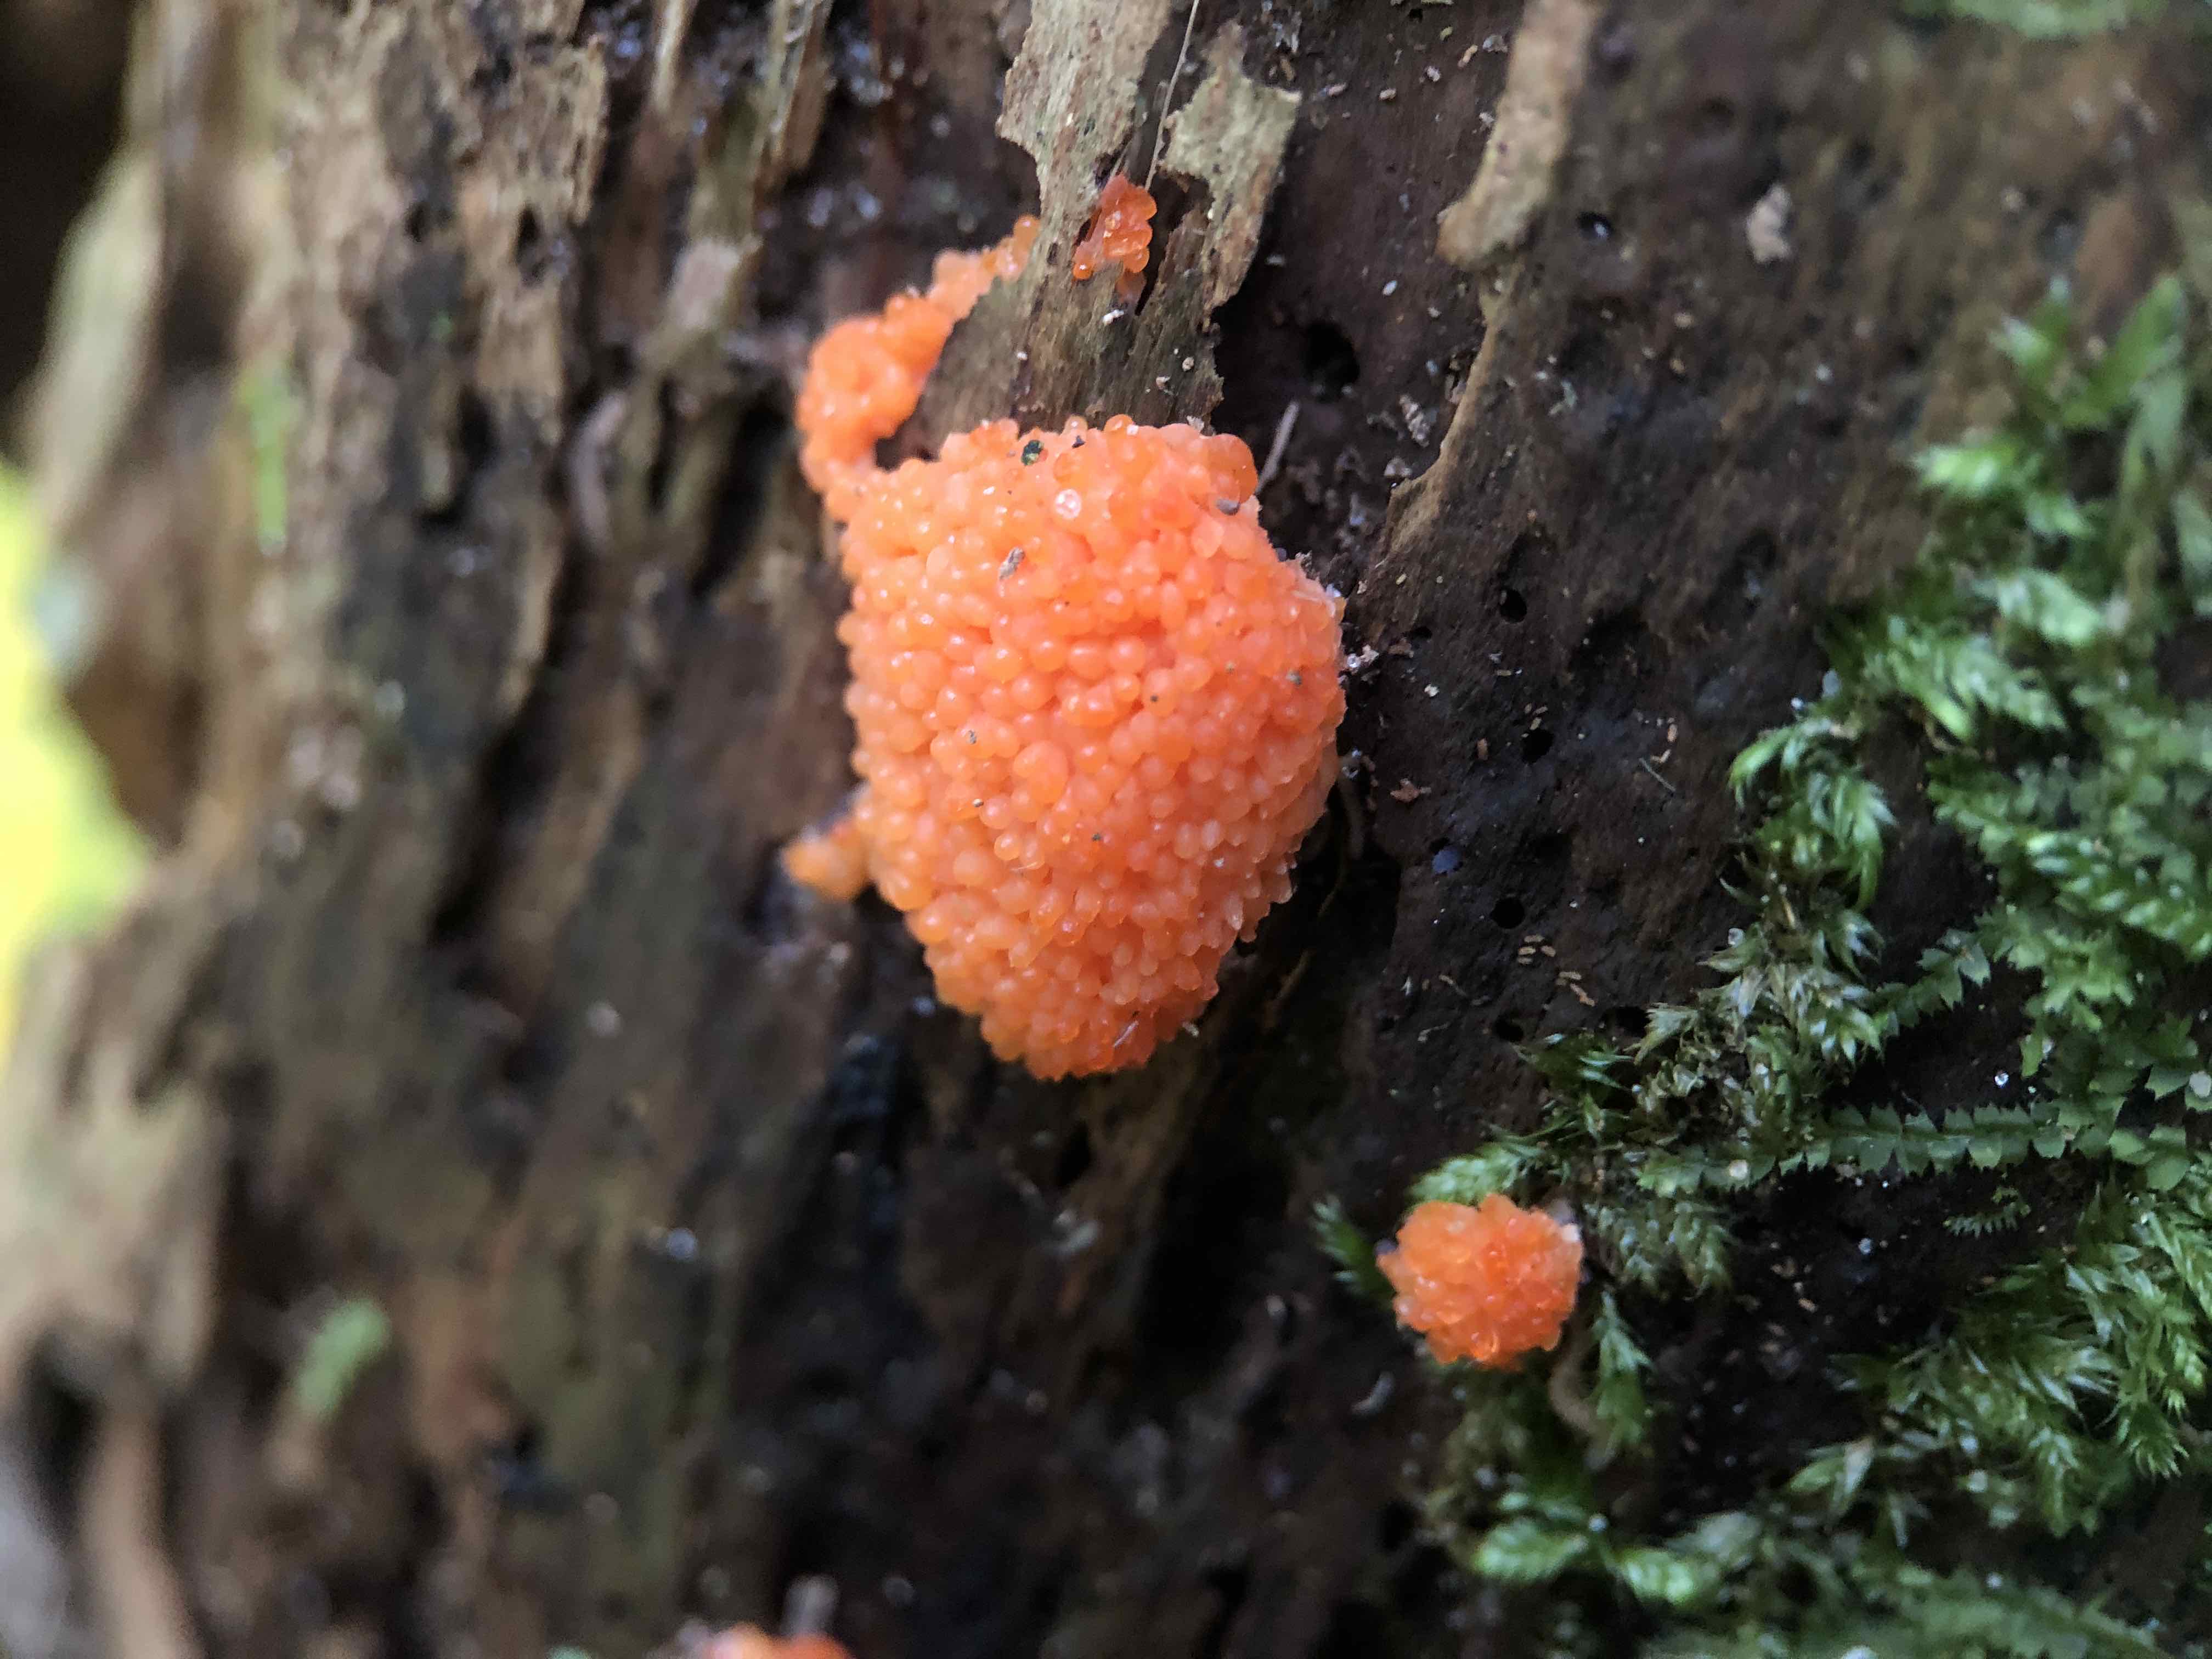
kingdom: Protozoa
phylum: Mycetozoa
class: Myxomycetes
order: Cribrariales
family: Tubiferaceae
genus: Tubifera
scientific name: Tubifera ferruginosa
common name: kanel-støvrør
